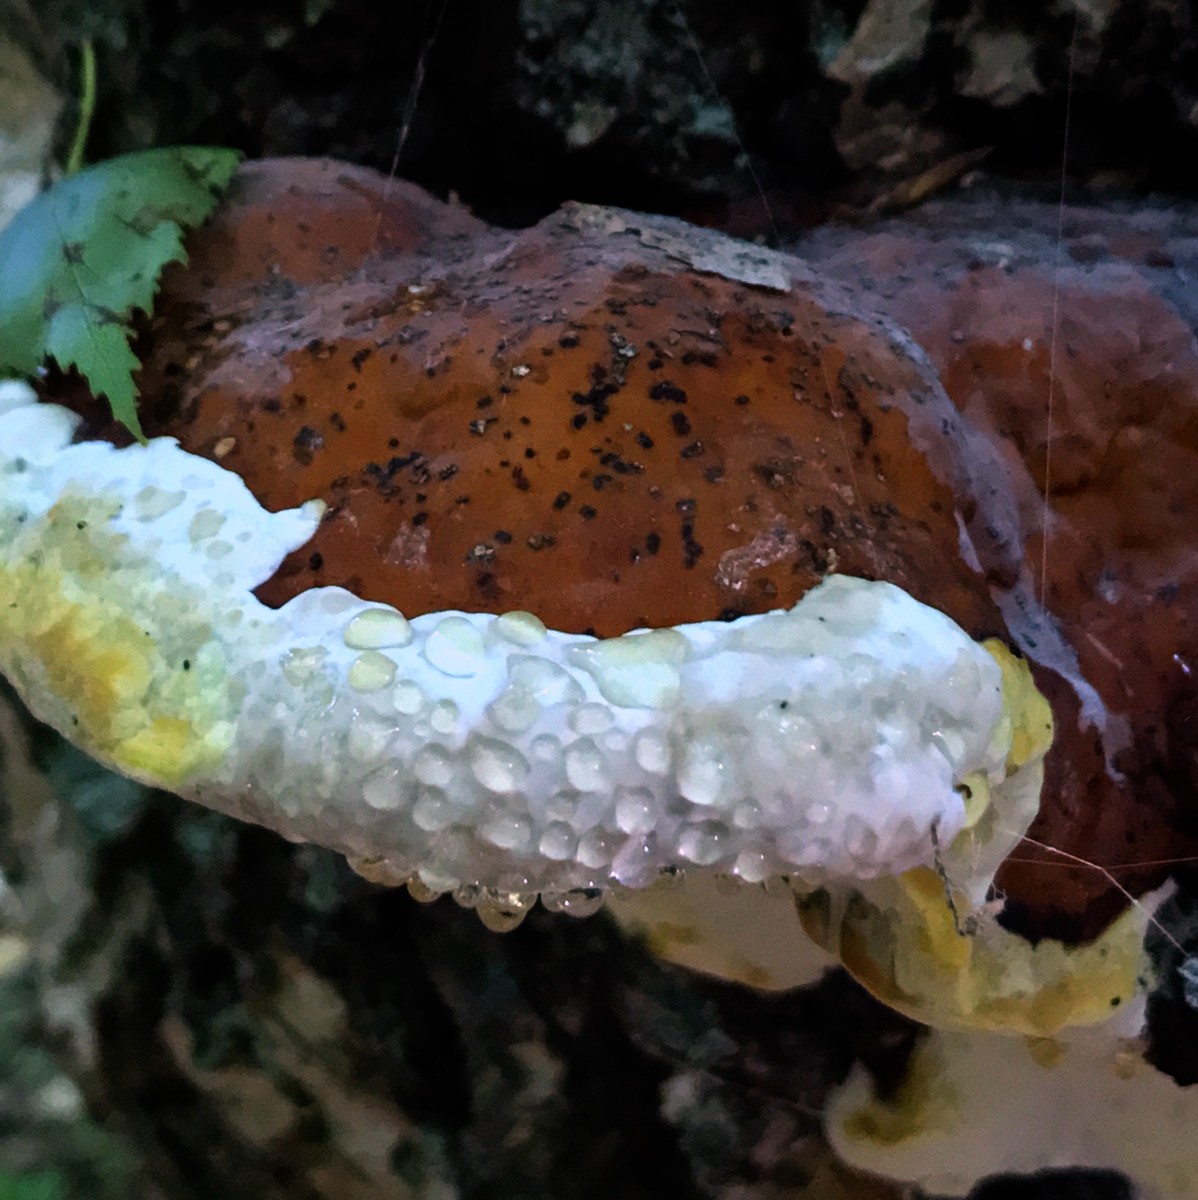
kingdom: Fungi
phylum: Basidiomycota
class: Agaricomycetes
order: Polyporales
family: Fomitopsidaceae
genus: Fomitopsis
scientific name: Fomitopsis pinicola
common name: randbæltet hovporesvamp
